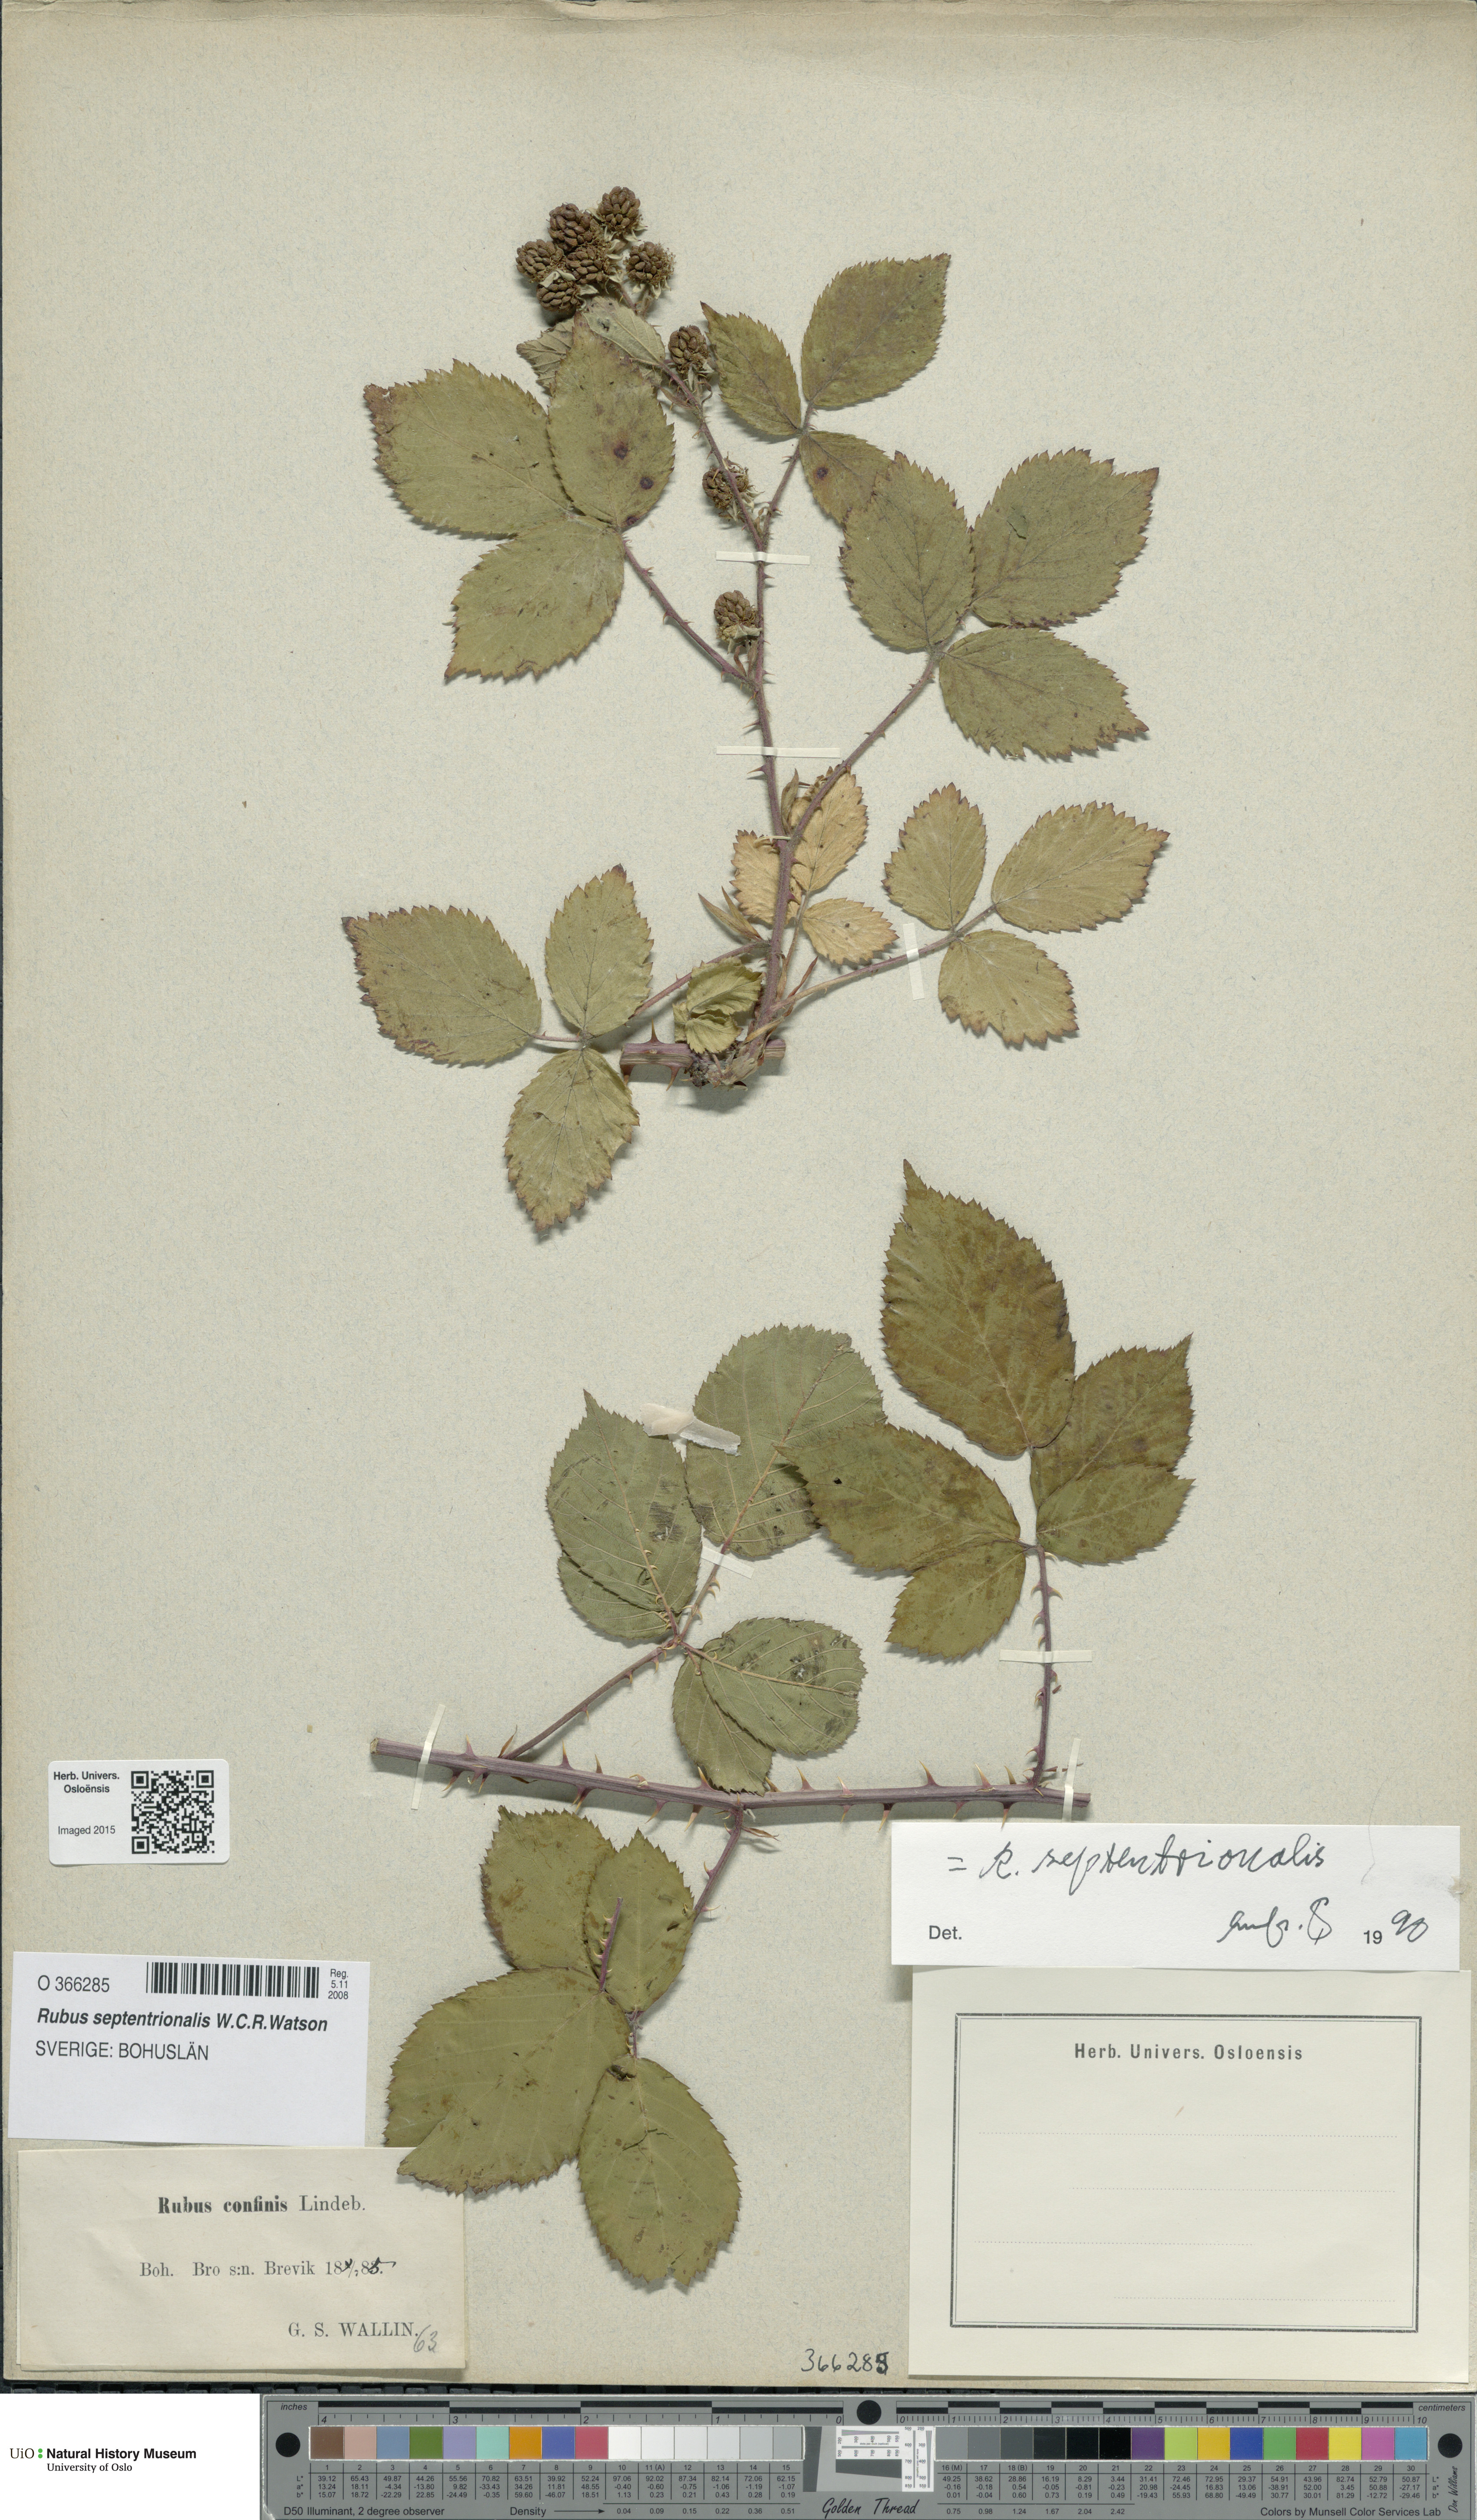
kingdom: Plantae
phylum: Tracheophyta
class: Magnoliopsida
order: Rosales
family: Rosaceae
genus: Rubus
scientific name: Rubus septentrionalis
